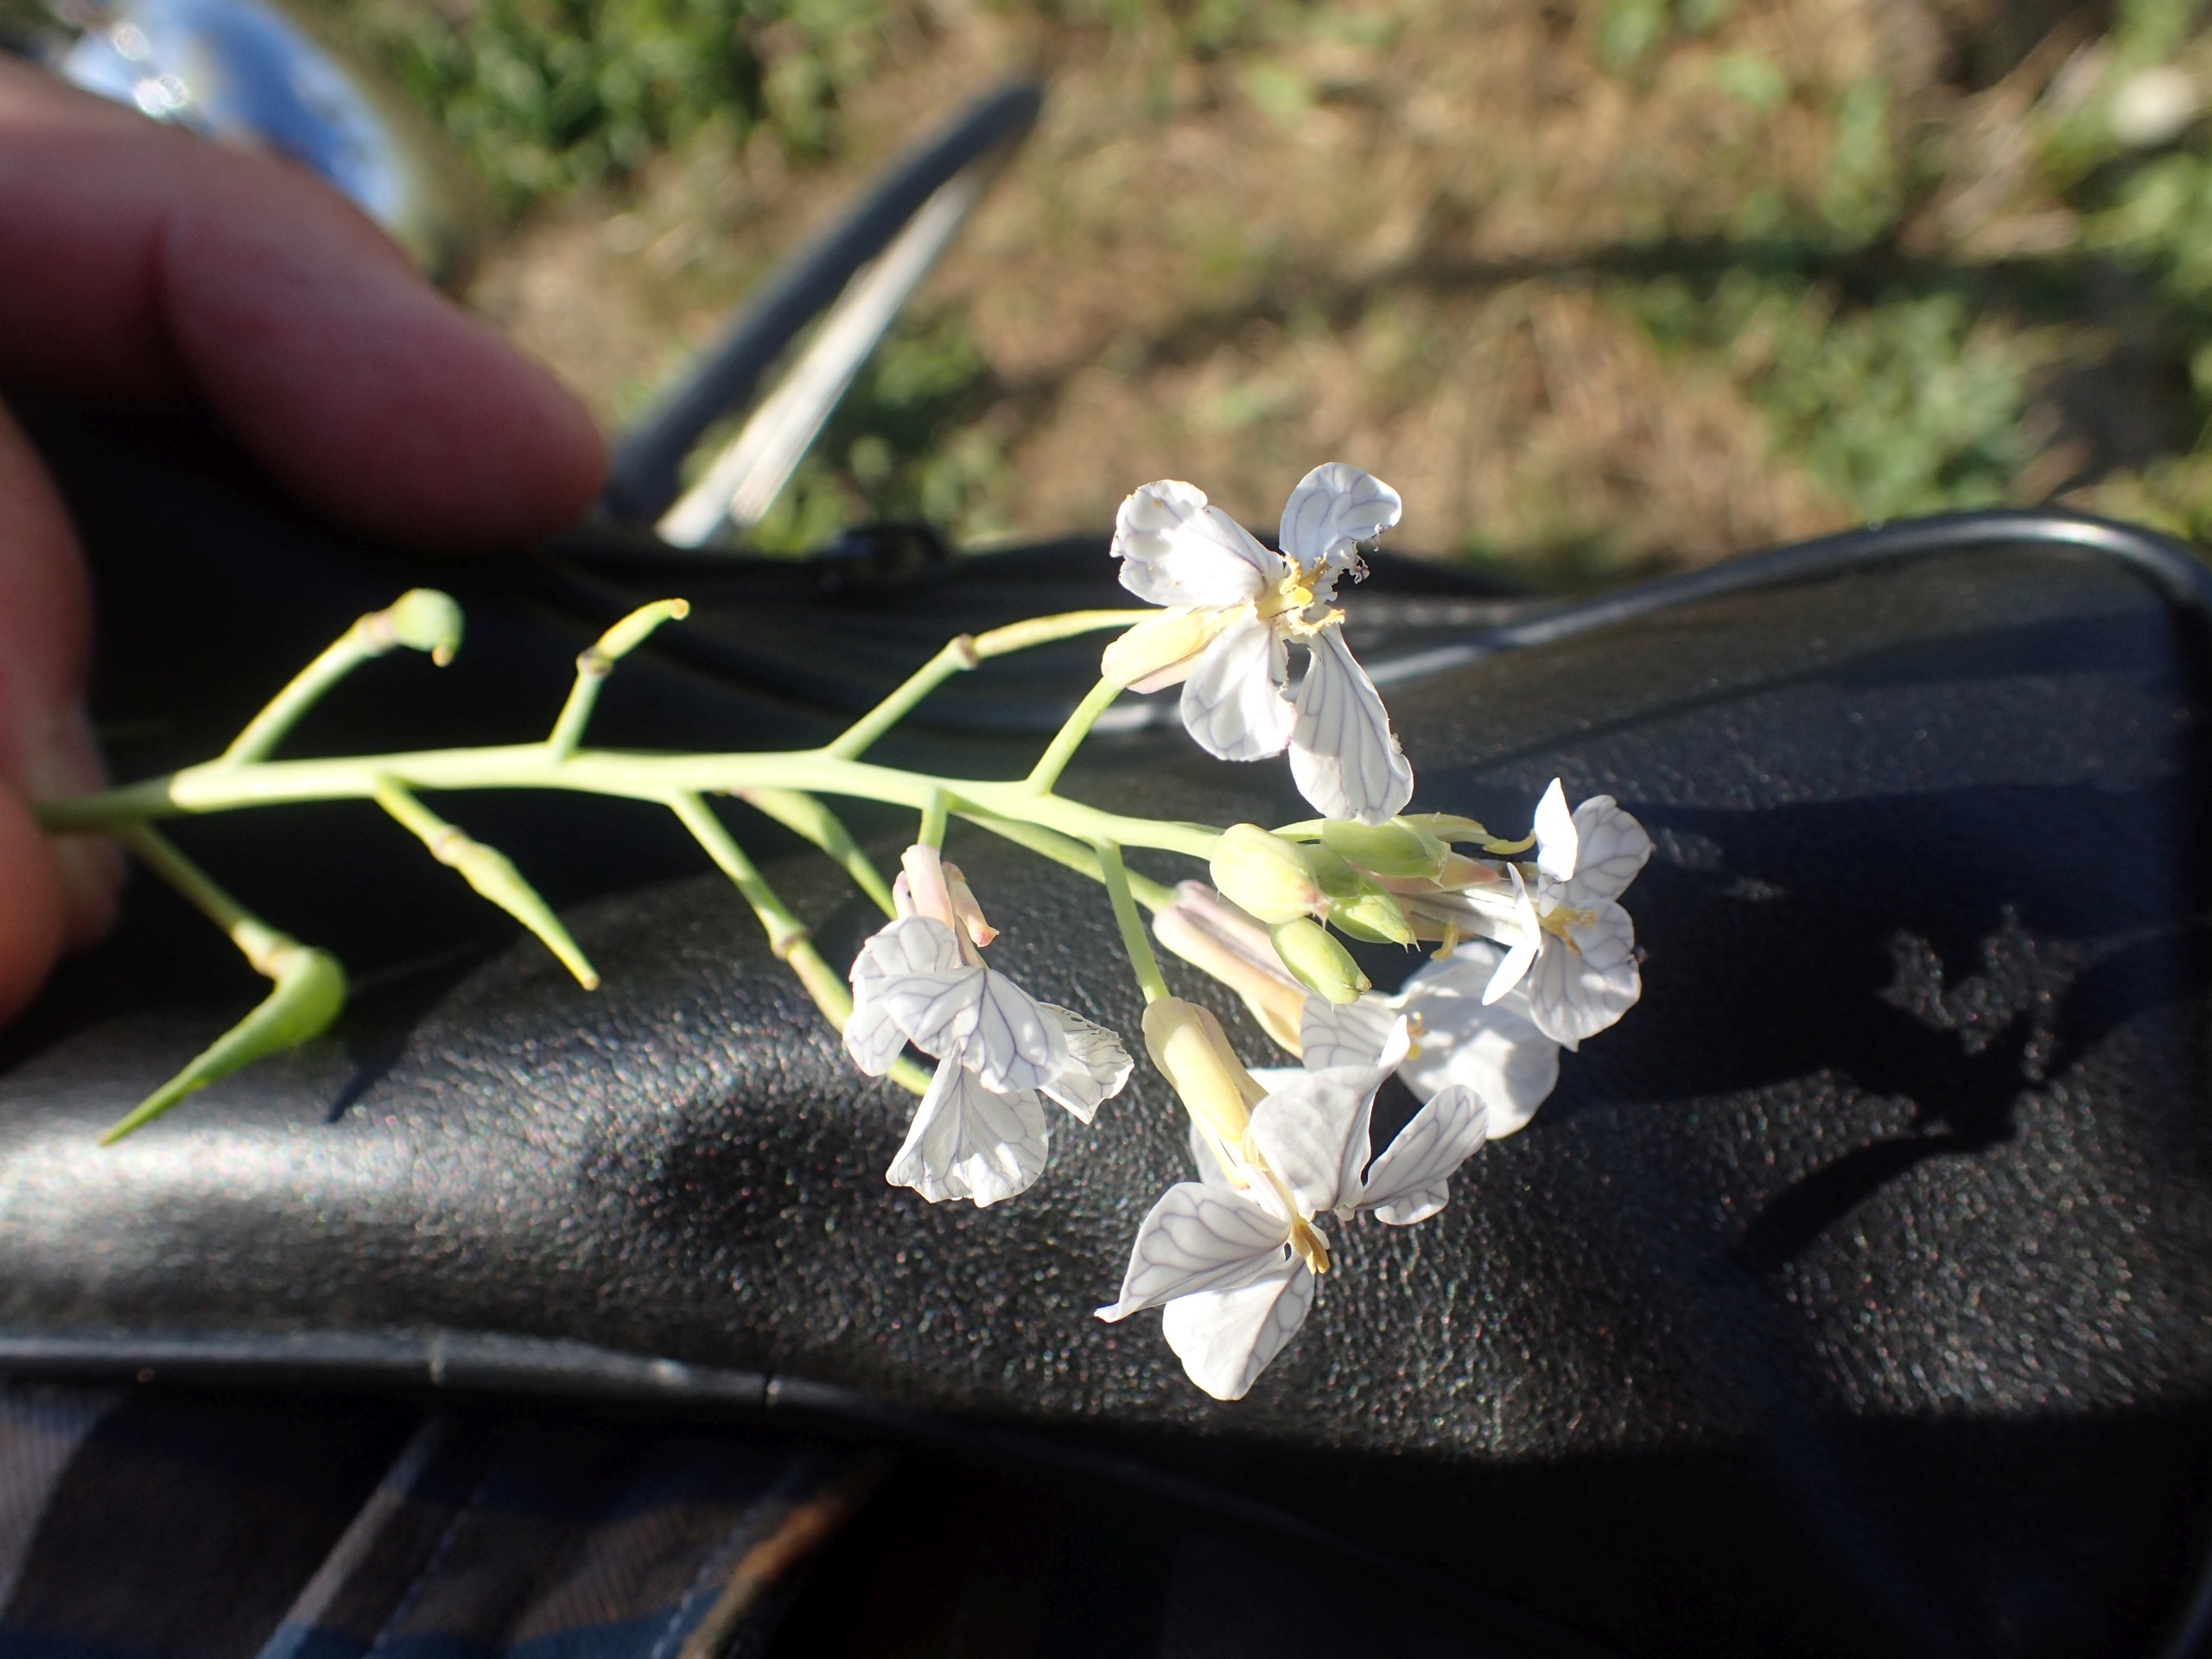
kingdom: Plantae
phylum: Tracheophyta
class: Magnoliopsida
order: Brassicales
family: Brassicaceae
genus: Raphanus
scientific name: Raphanus sativus
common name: Radise
